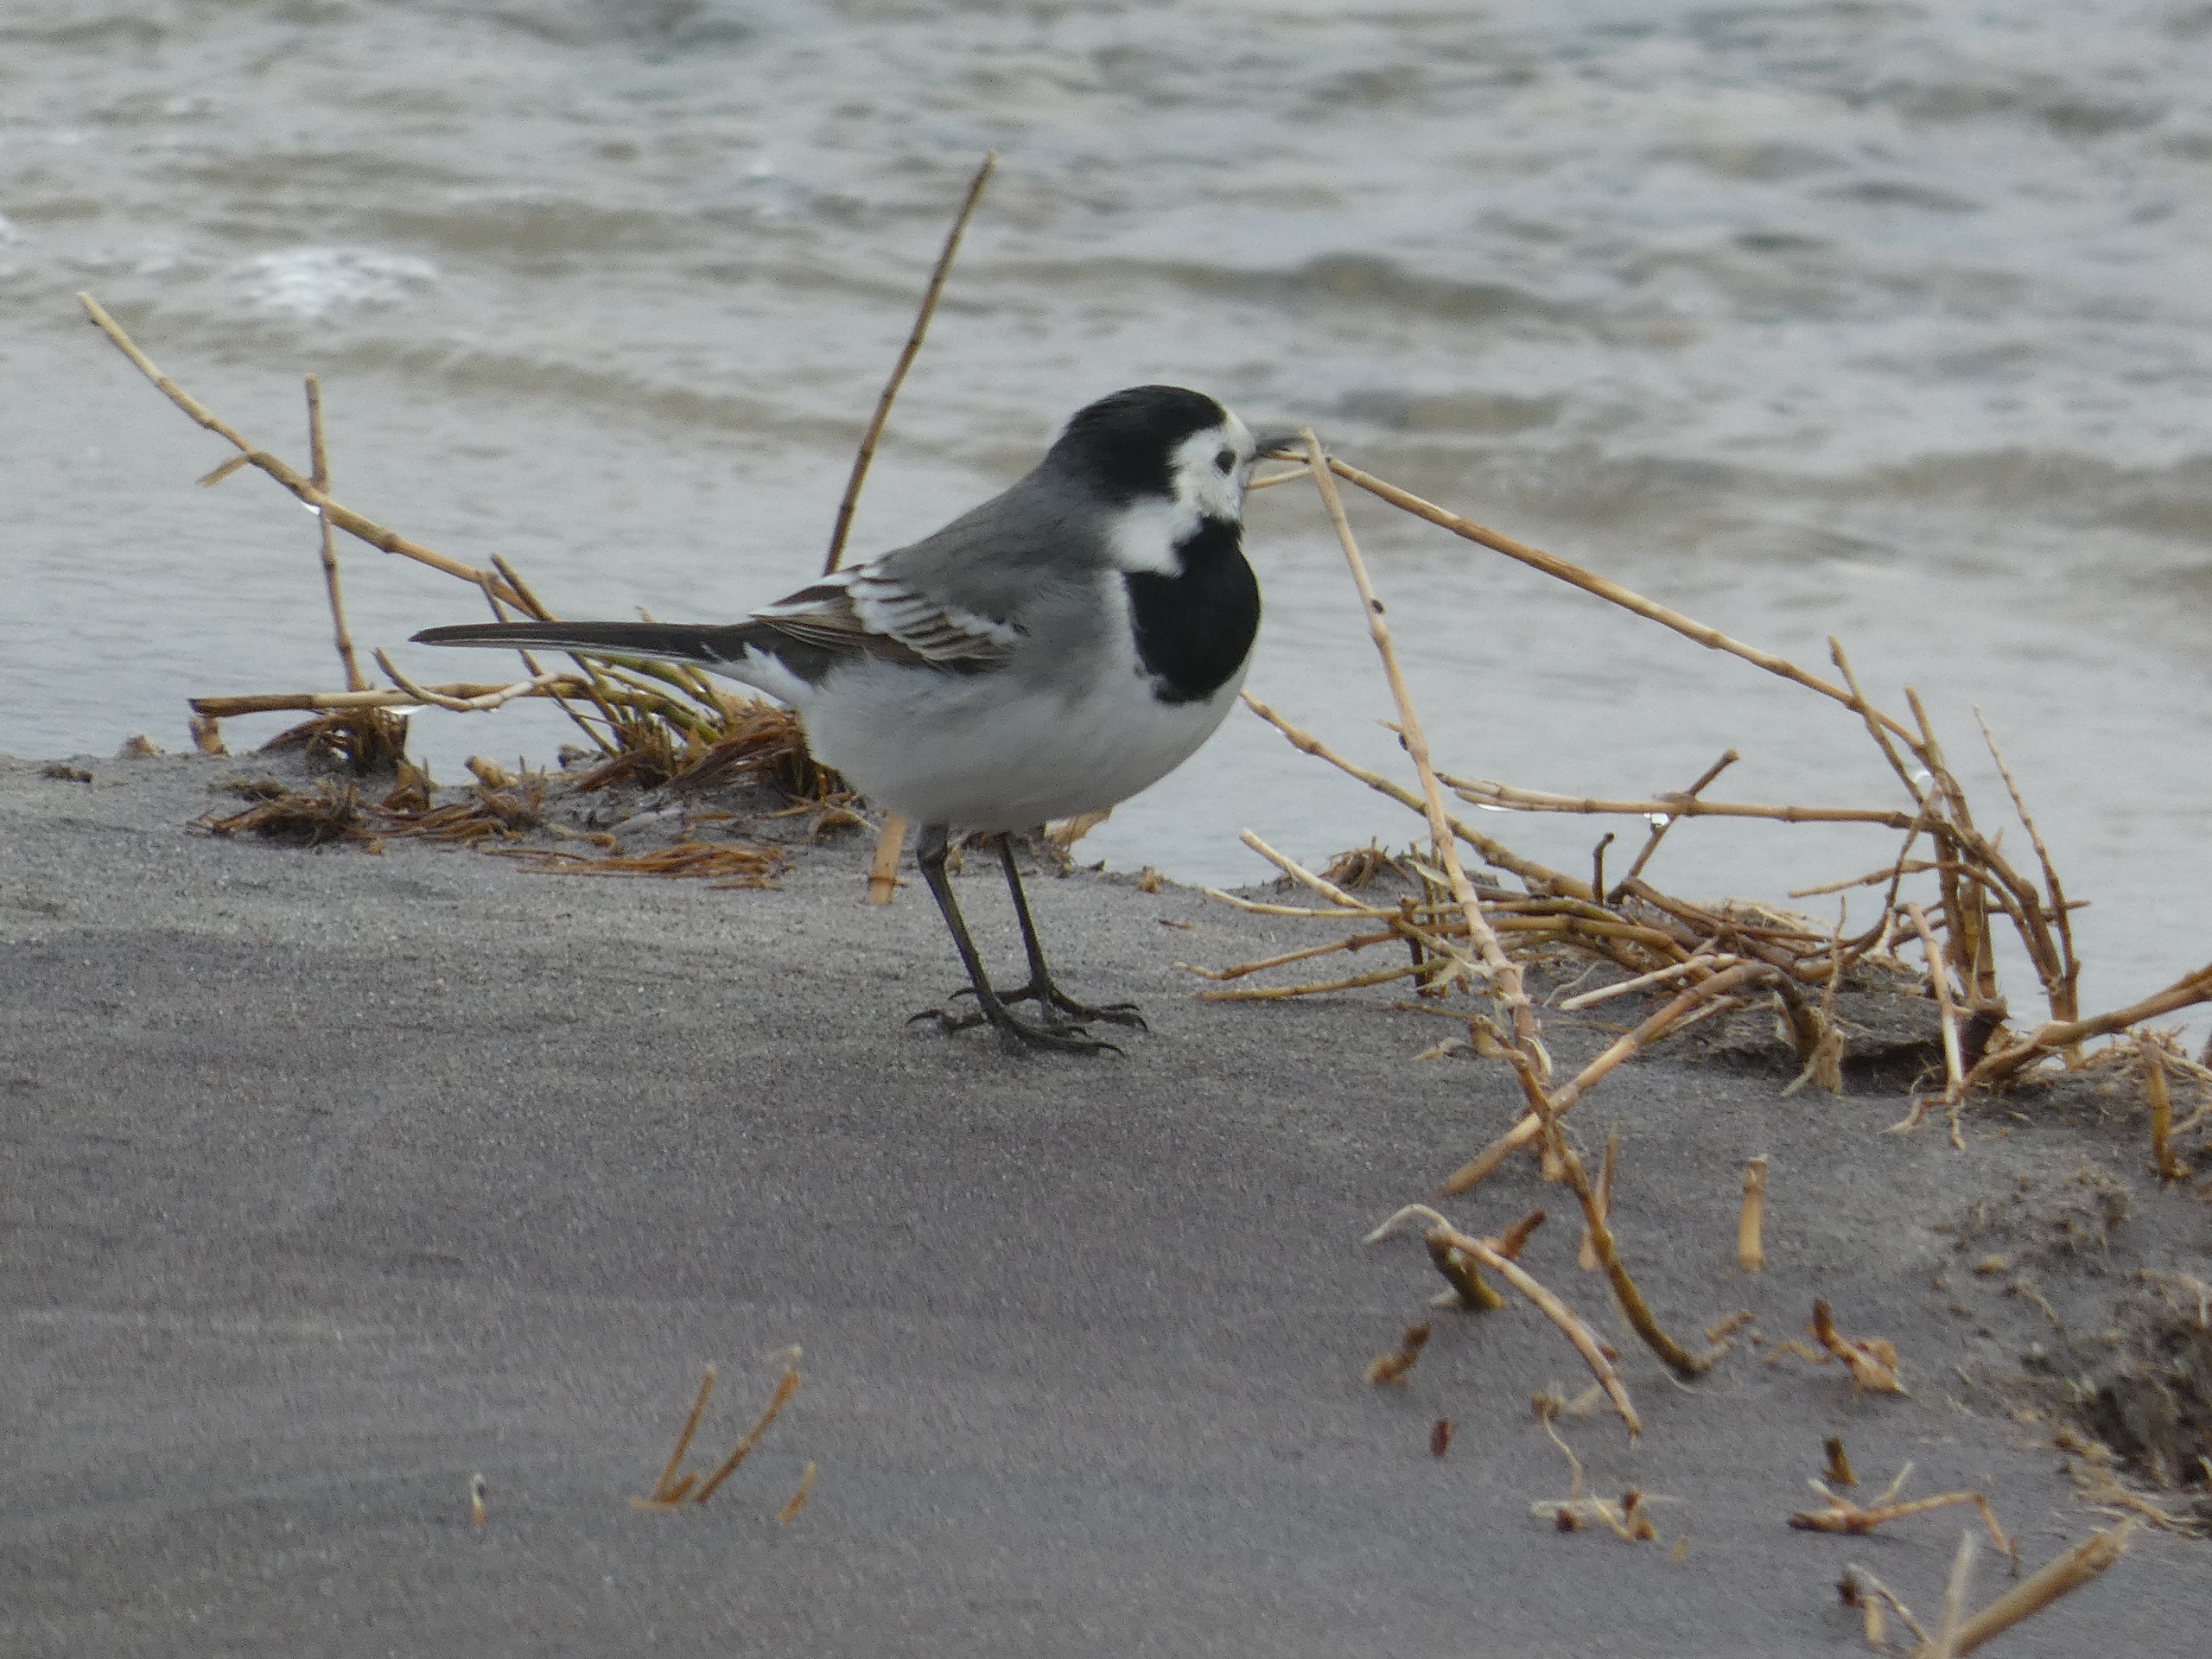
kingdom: Animalia
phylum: Chordata
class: Aves
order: Passeriformes
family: Motacillidae
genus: Motacilla
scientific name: Motacilla alba
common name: Hvid vipstjert
